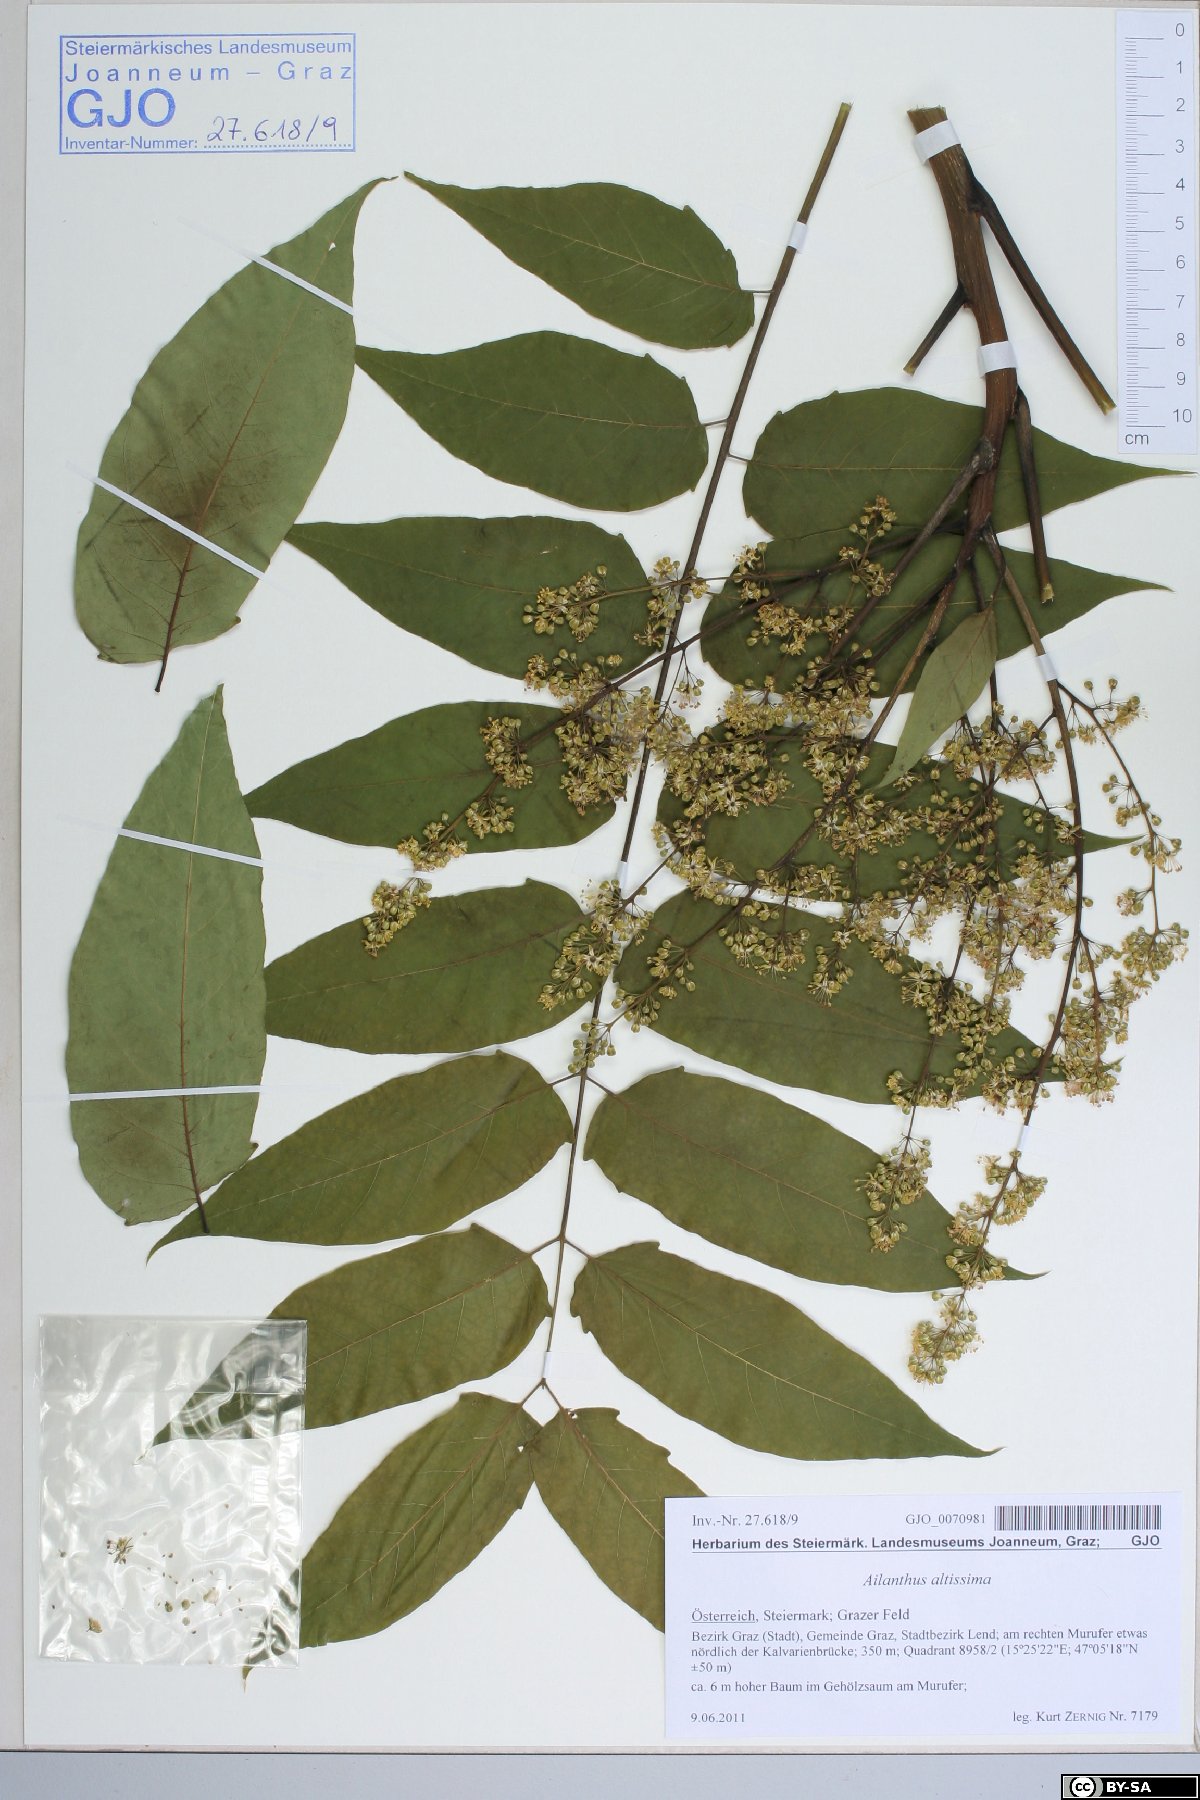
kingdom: Plantae
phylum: Tracheophyta
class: Magnoliopsida
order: Sapindales
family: Simaroubaceae
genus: Ailanthus
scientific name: Ailanthus altissima
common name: Tree-of-heaven
